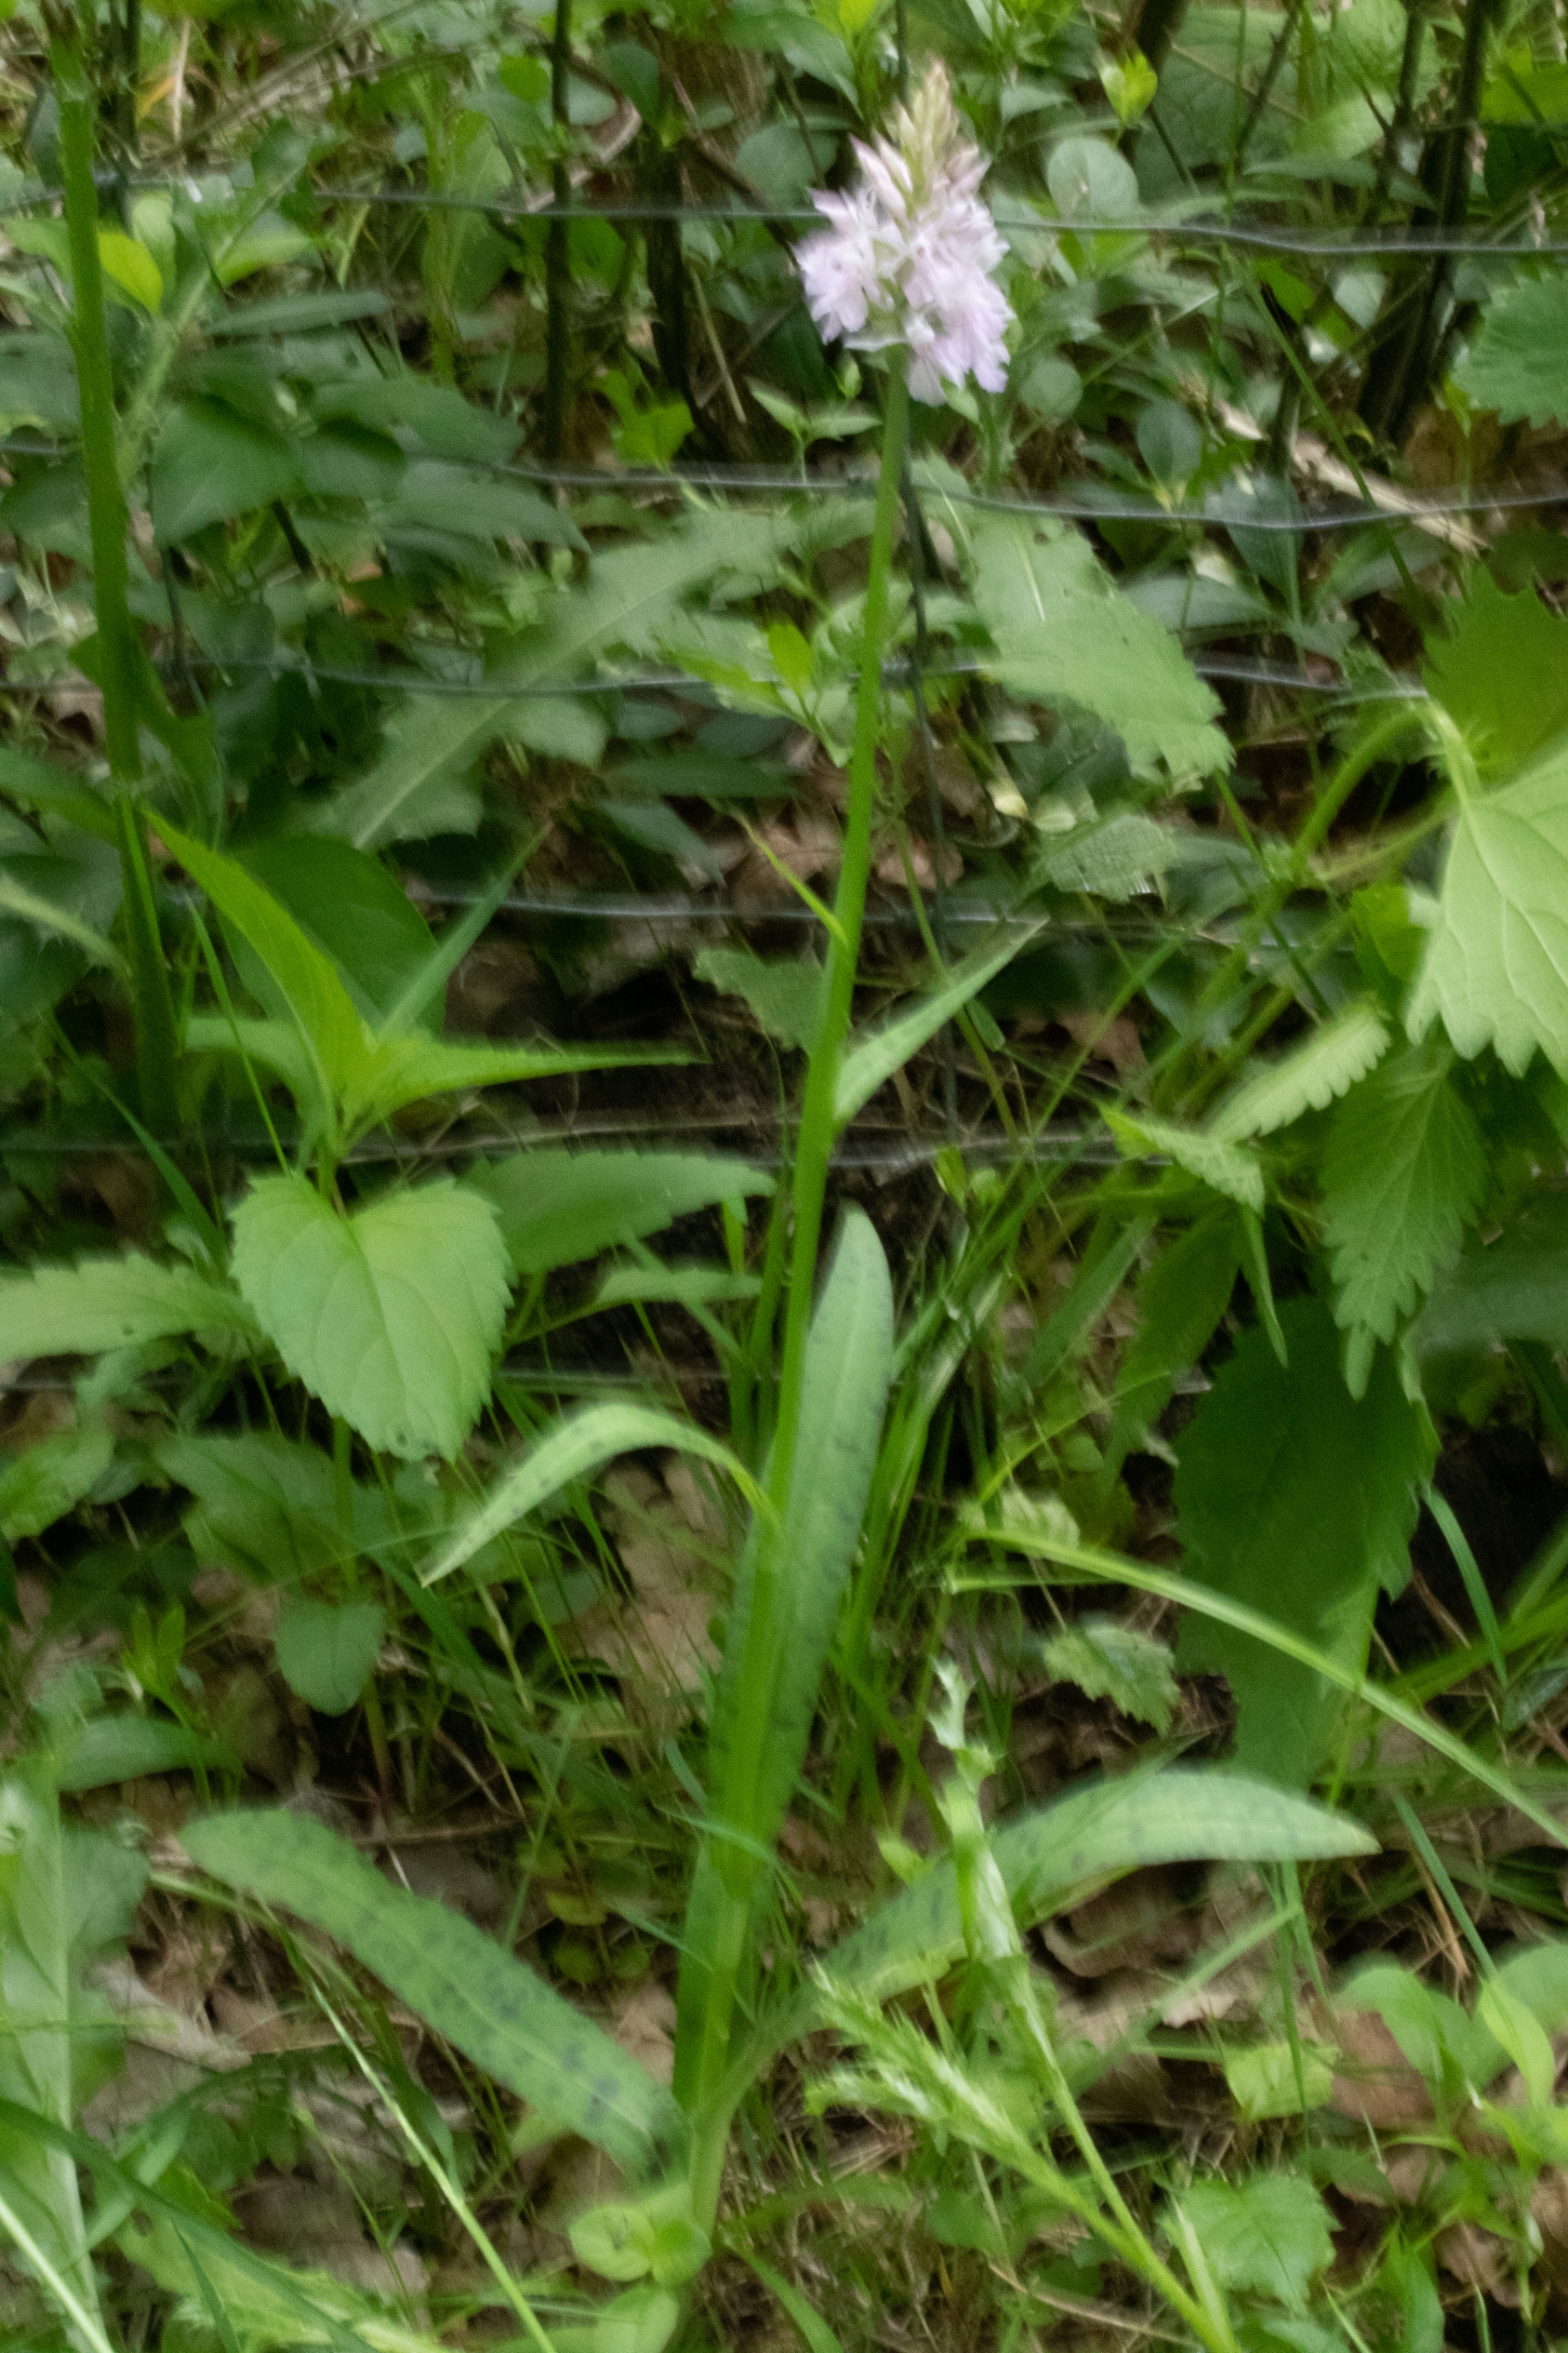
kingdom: Plantae
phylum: Tracheophyta
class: Liliopsida
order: Asparagales
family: Orchidaceae
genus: Dactylorhiza
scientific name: Dactylorhiza maculata
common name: Skov-gøgeurt
